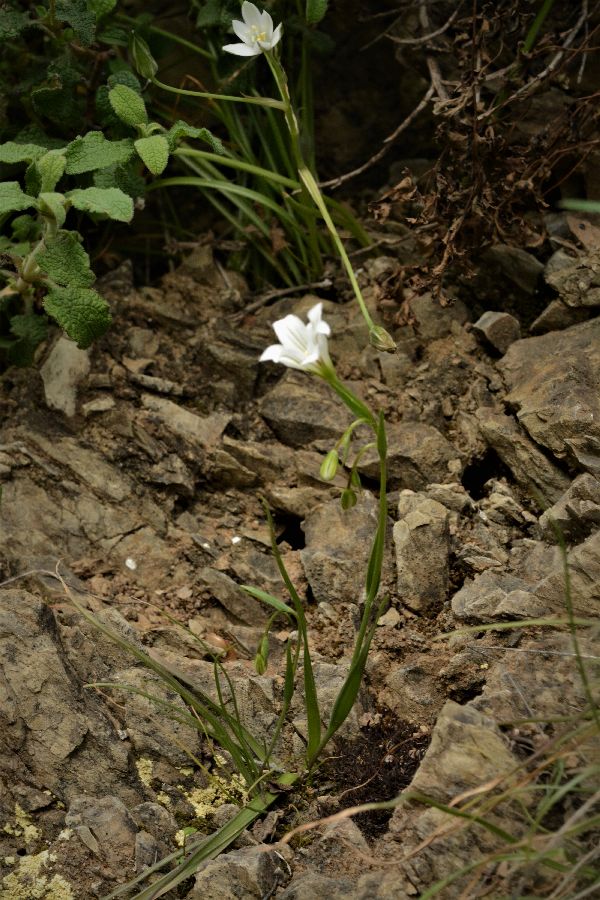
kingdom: Plantae
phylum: Tracheophyta
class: Liliopsida
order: Liliales
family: Liliaceae
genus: Gagea
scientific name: Gagea graeca
